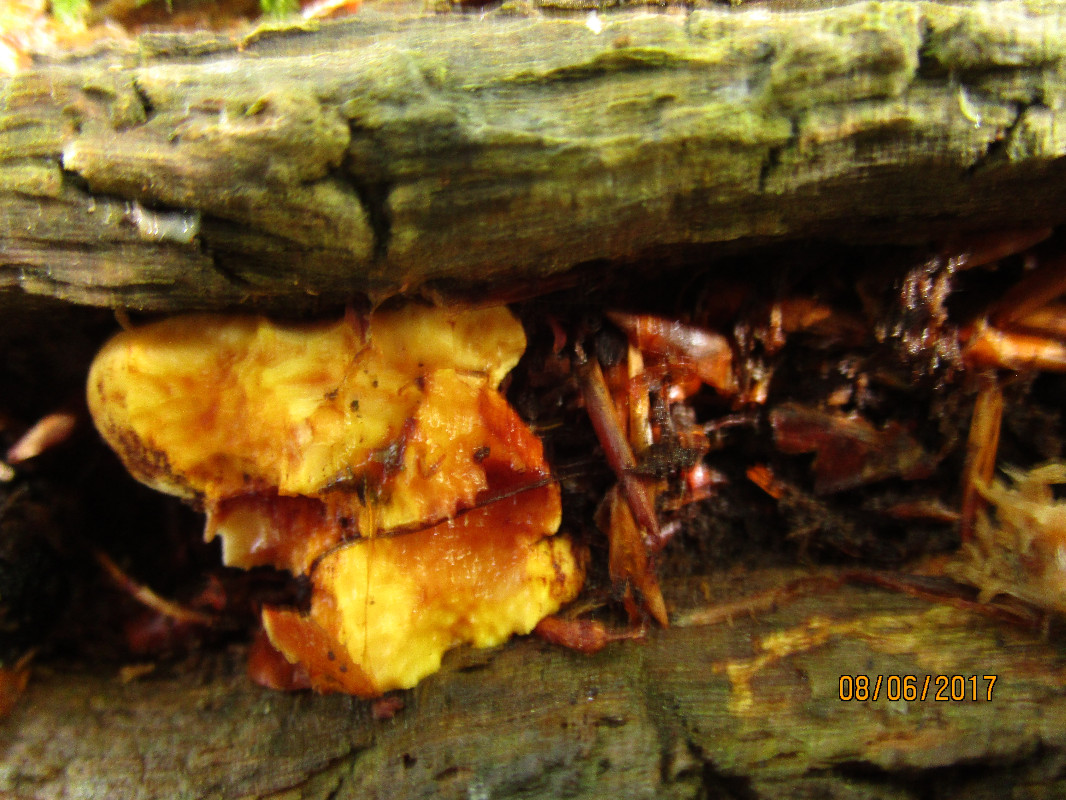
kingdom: Fungi
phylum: Basidiomycota
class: Agaricomycetes
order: Polyporales
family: Fomitopsidaceae
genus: Buglossoporus
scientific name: Buglossoporus quercinus
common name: egetunge
